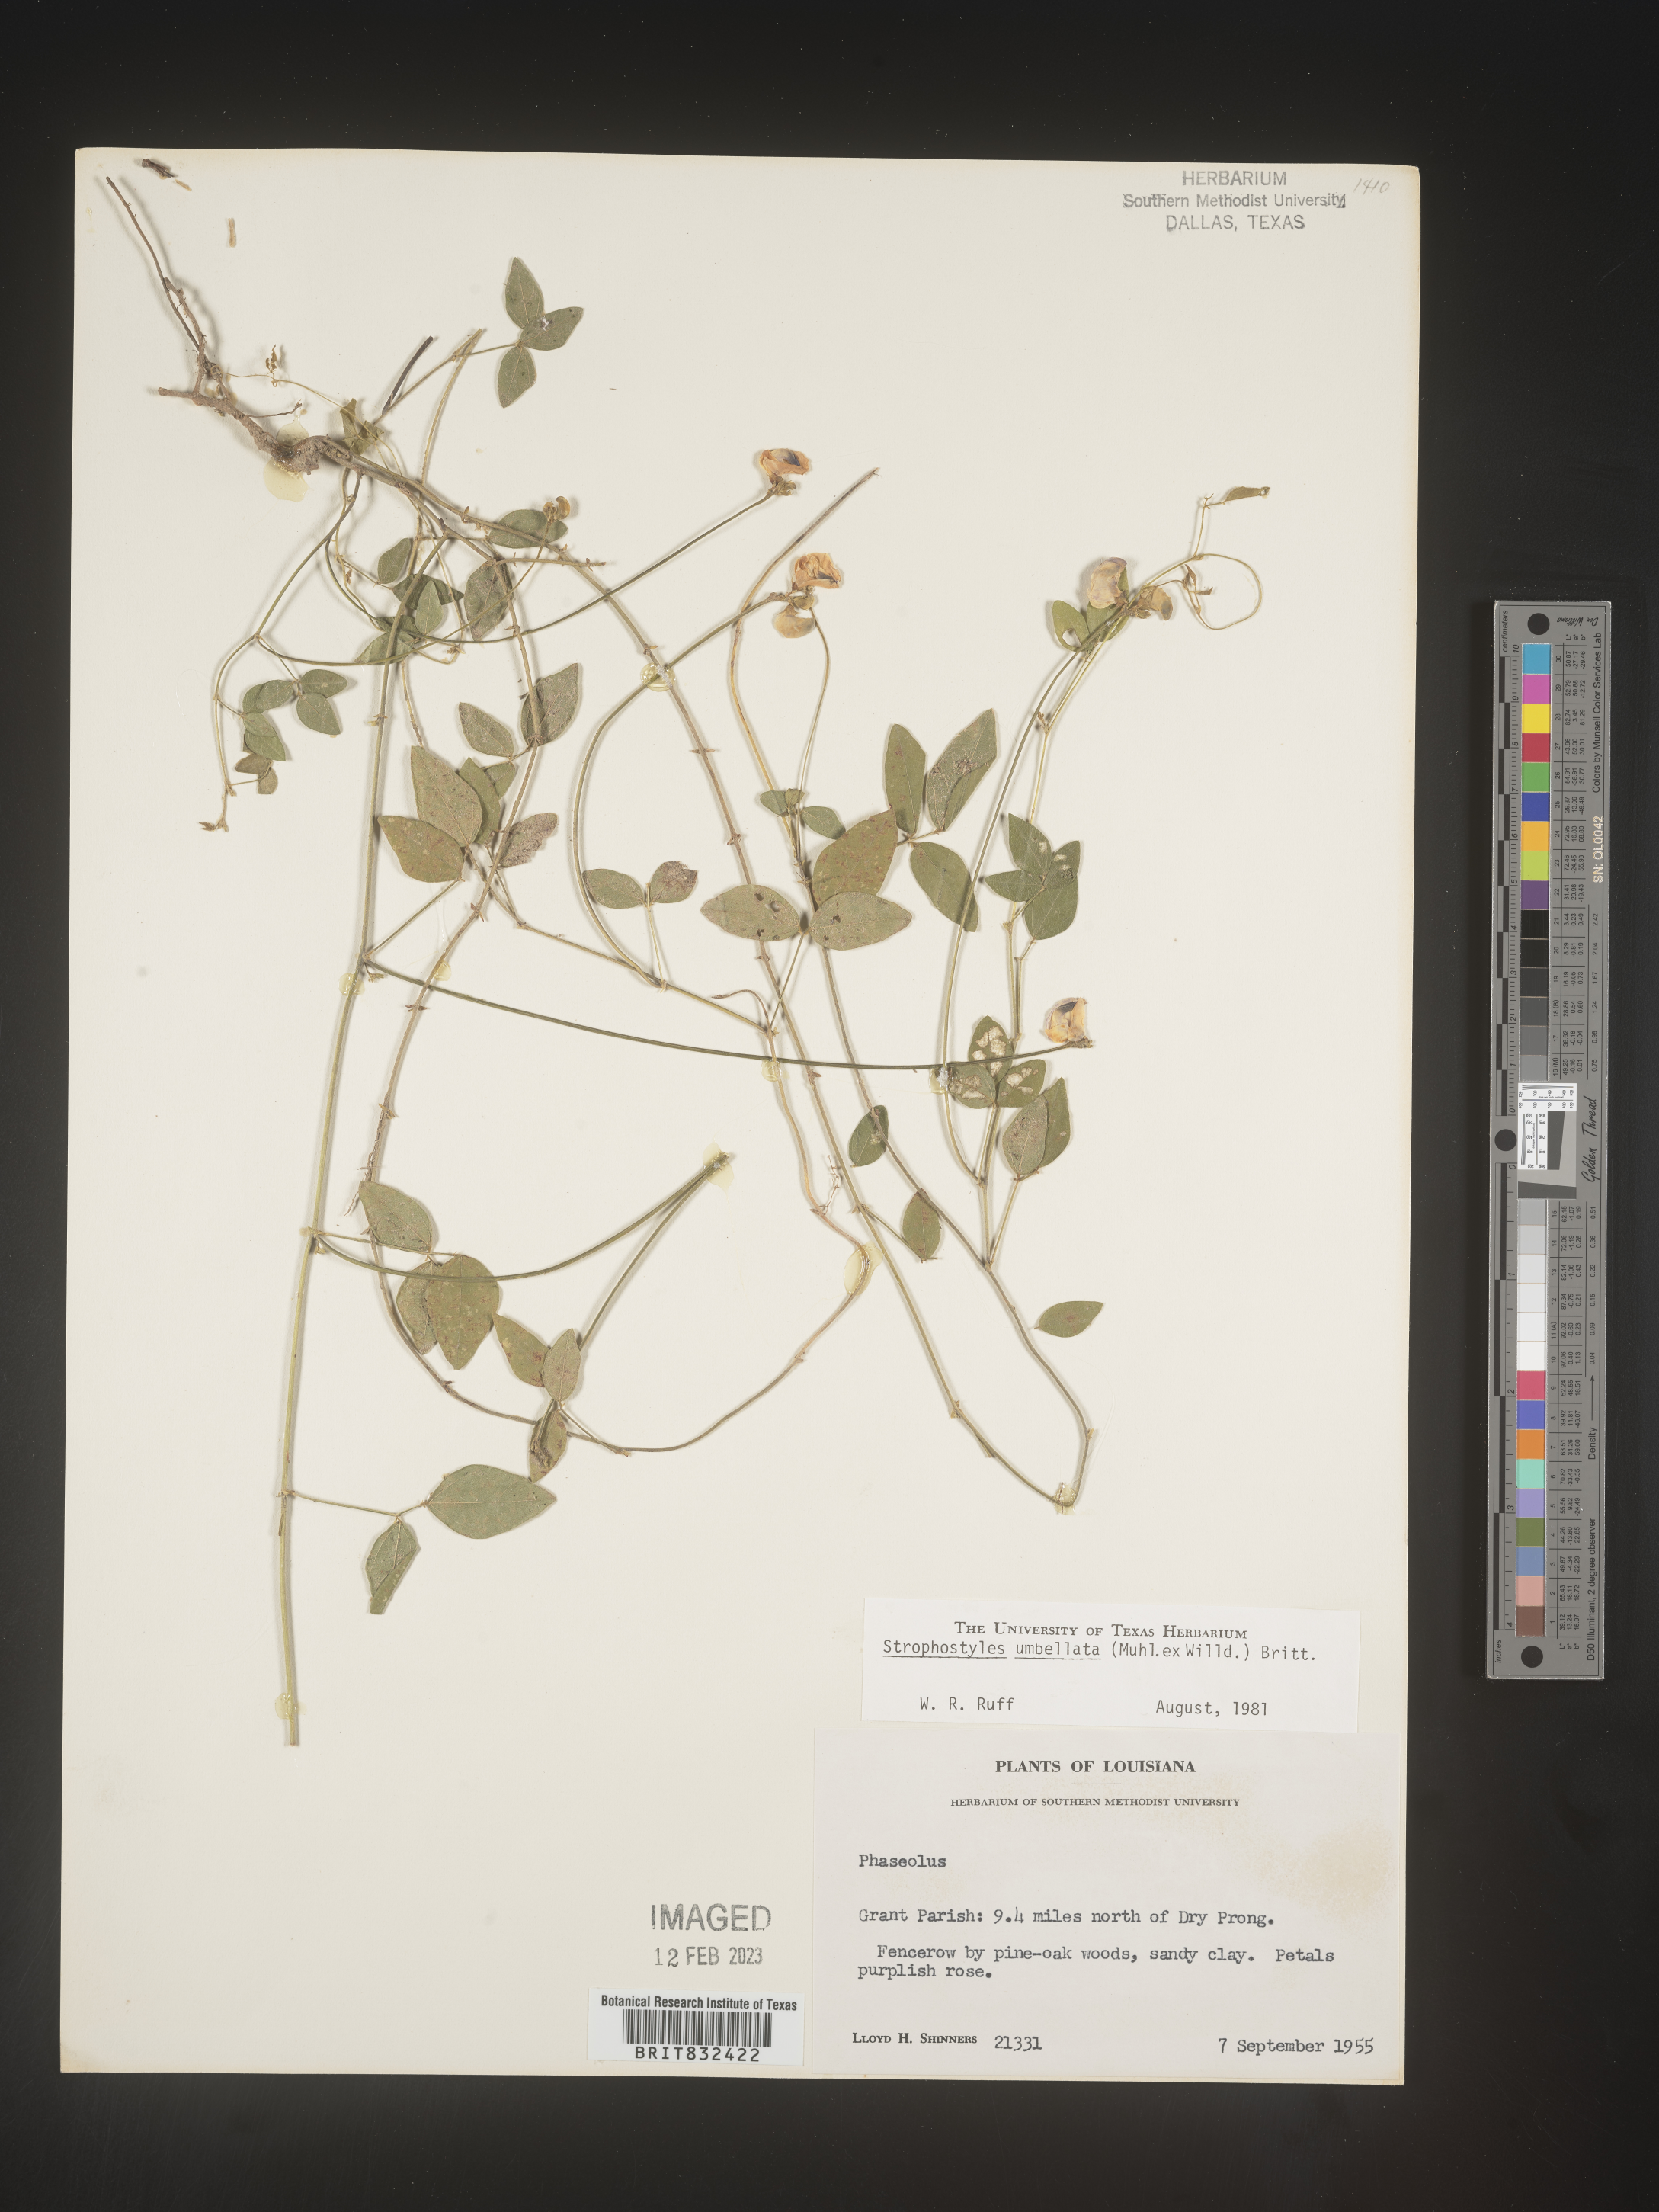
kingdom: Plantae
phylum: Tracheophyta
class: Magnoliopsida
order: Fabales
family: Fabaceae
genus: Strophostyles
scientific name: Strophostyles umbellata
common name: Perennial wild bean
